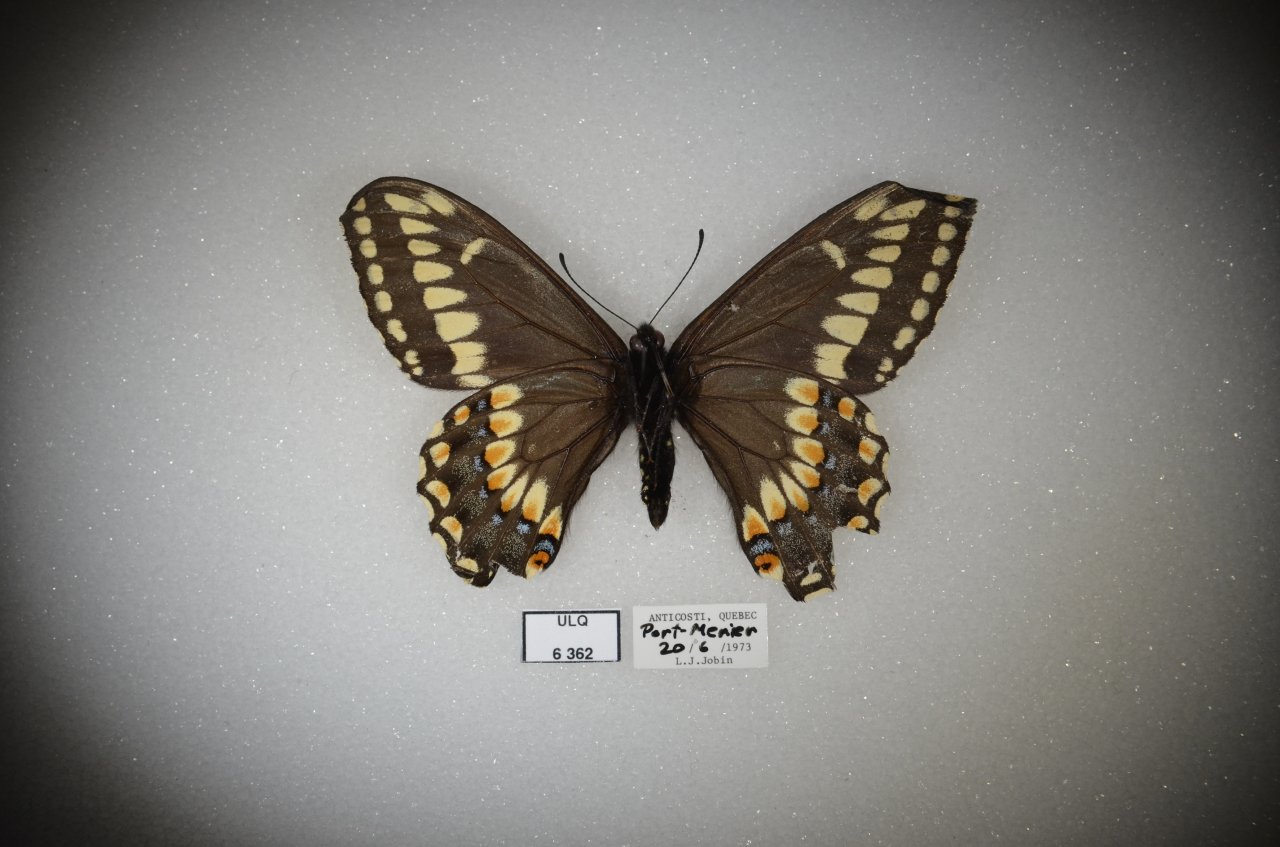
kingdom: Animalia
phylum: Arthropoda
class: Insecta
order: Lepidoptera
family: Papilionidae
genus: Papilio
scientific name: Papilio brevicauda
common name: Short-tailed Swallowtail
